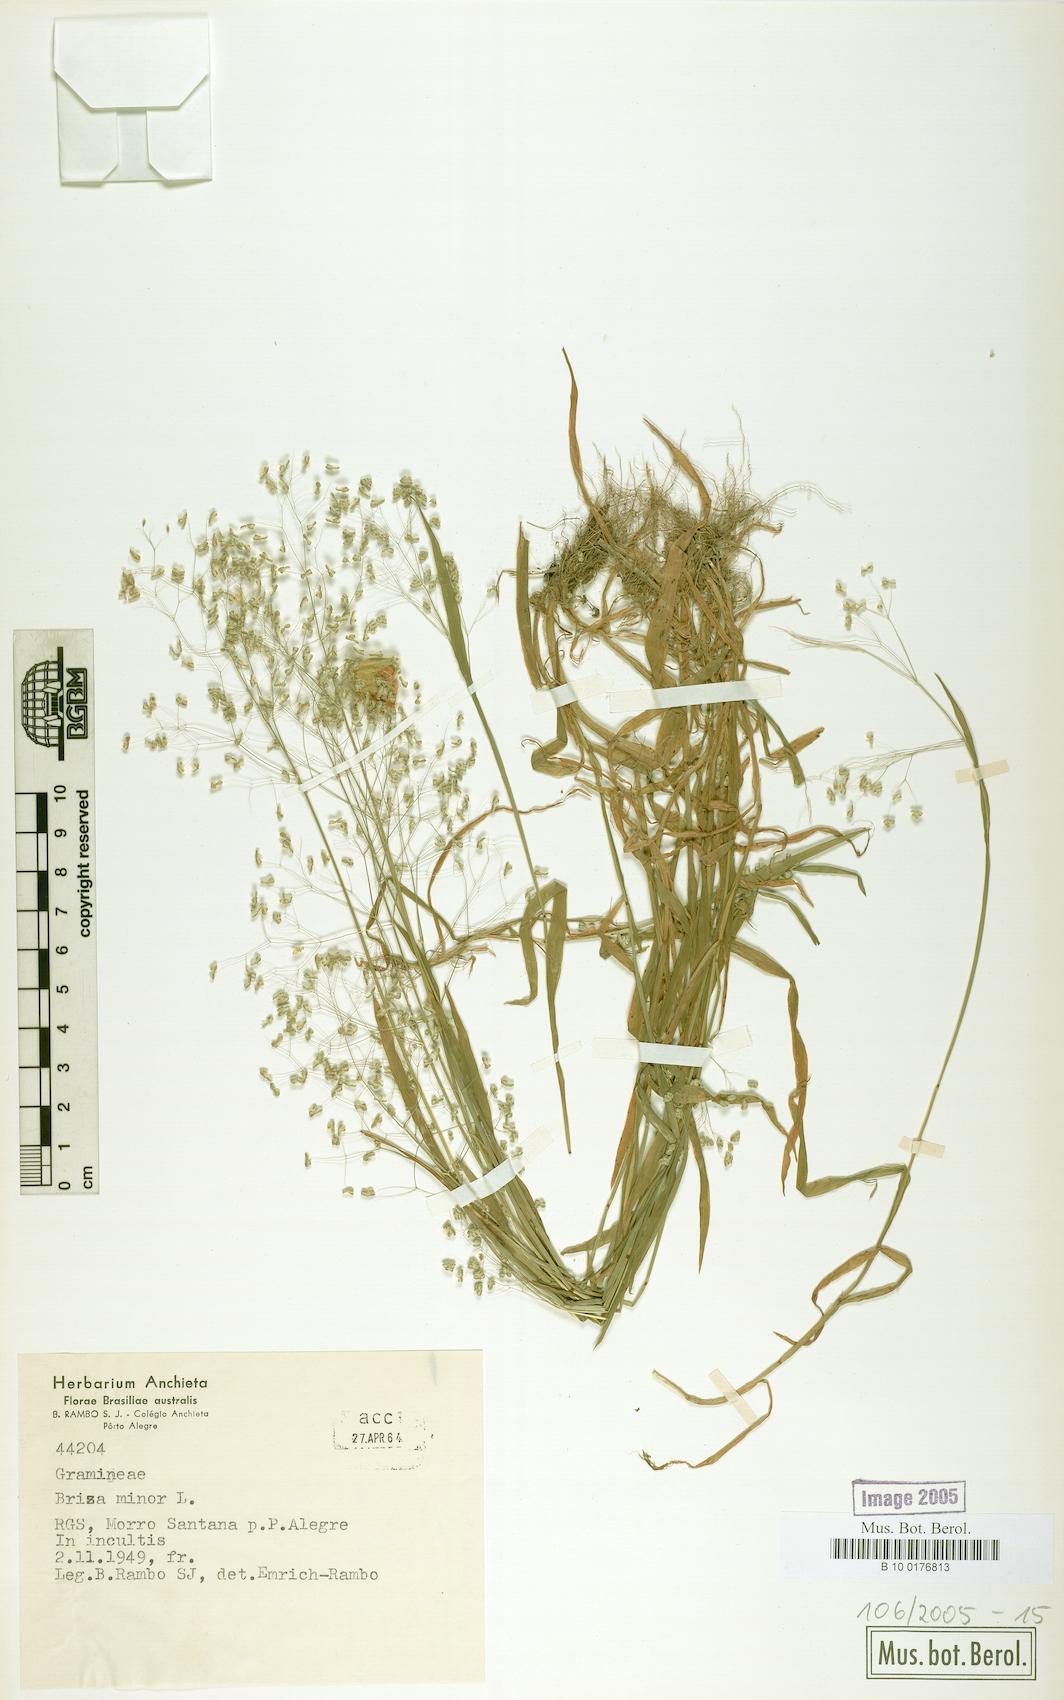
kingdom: Plantae
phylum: Tracheophyta
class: Liliopsida
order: Poales
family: Poaceae
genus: Briza
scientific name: Briza minor
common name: Lesser quaking-grass
